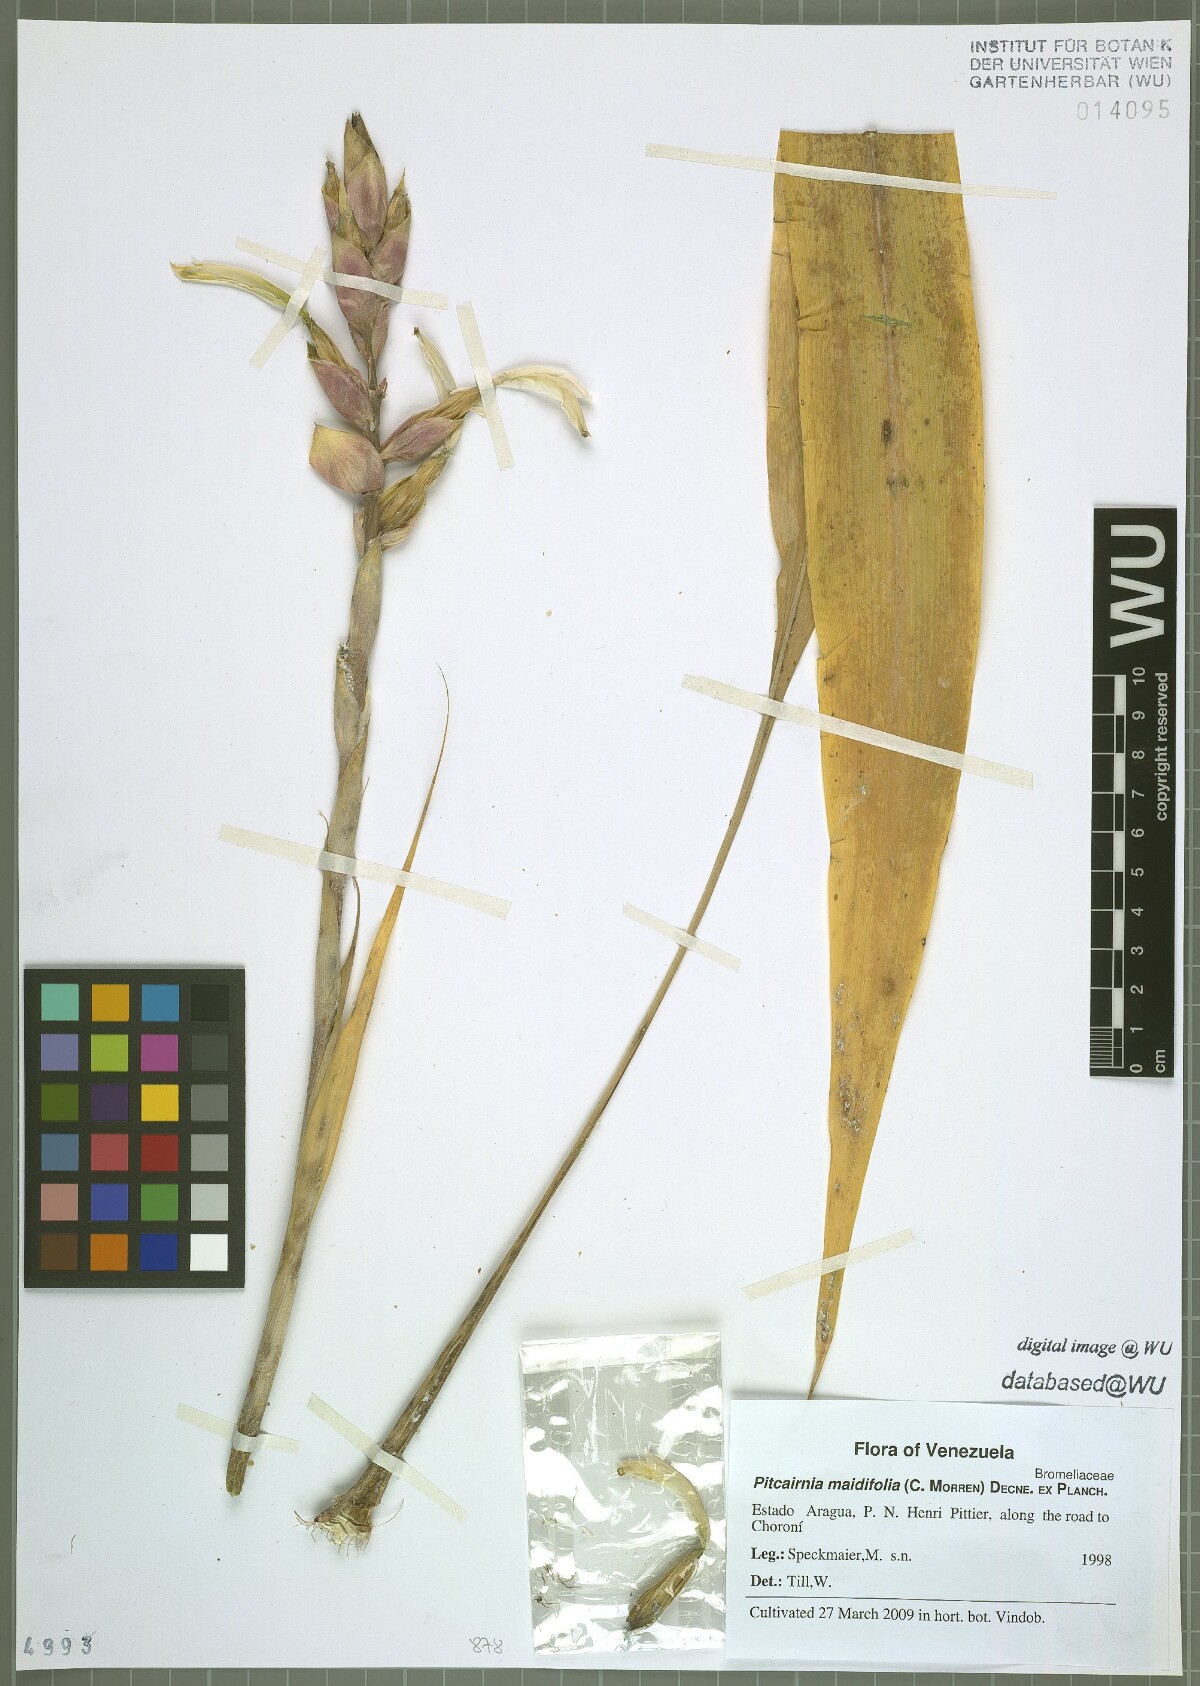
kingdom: Plantae
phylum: Tracheophyta
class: Liliopsida
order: Poales
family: Bromeliaceae
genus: Pitcairnia
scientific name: Pitcairnia maidifolia
